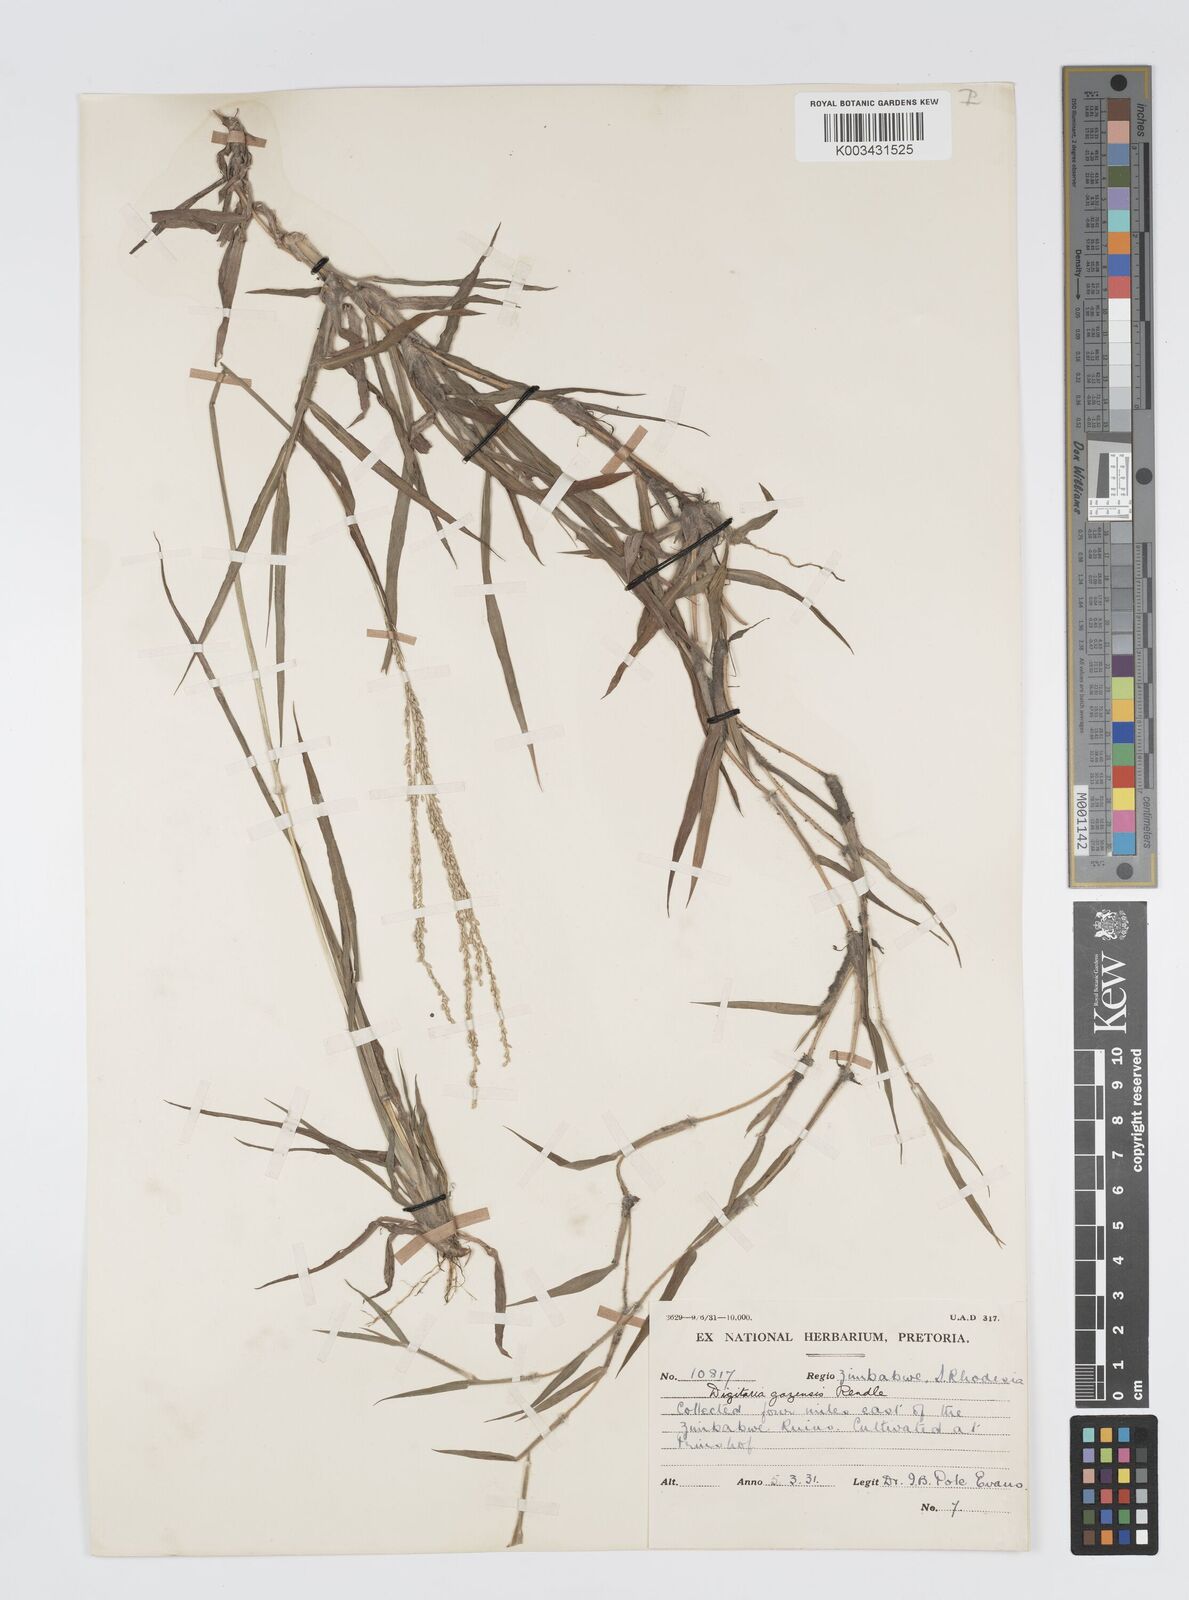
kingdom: Plantae
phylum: Tracheophyta
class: Liliopsida
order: Poales
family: Poaceae
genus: Digitaria
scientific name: Digitaria gazensis
